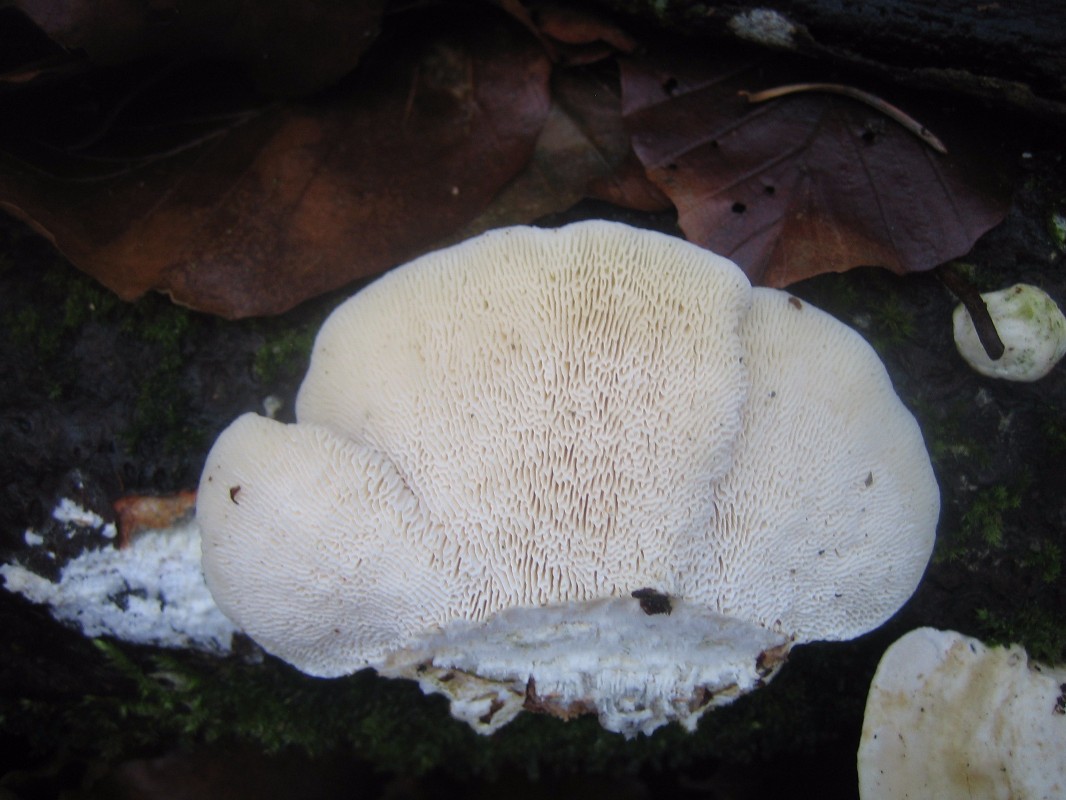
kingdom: Fungi
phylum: Basidiomycota
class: Agaricomycetes
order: Polyporales
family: Polyporaceae
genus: Trametes
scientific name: Trametes gibbosa
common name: puklet læderporesvamp
